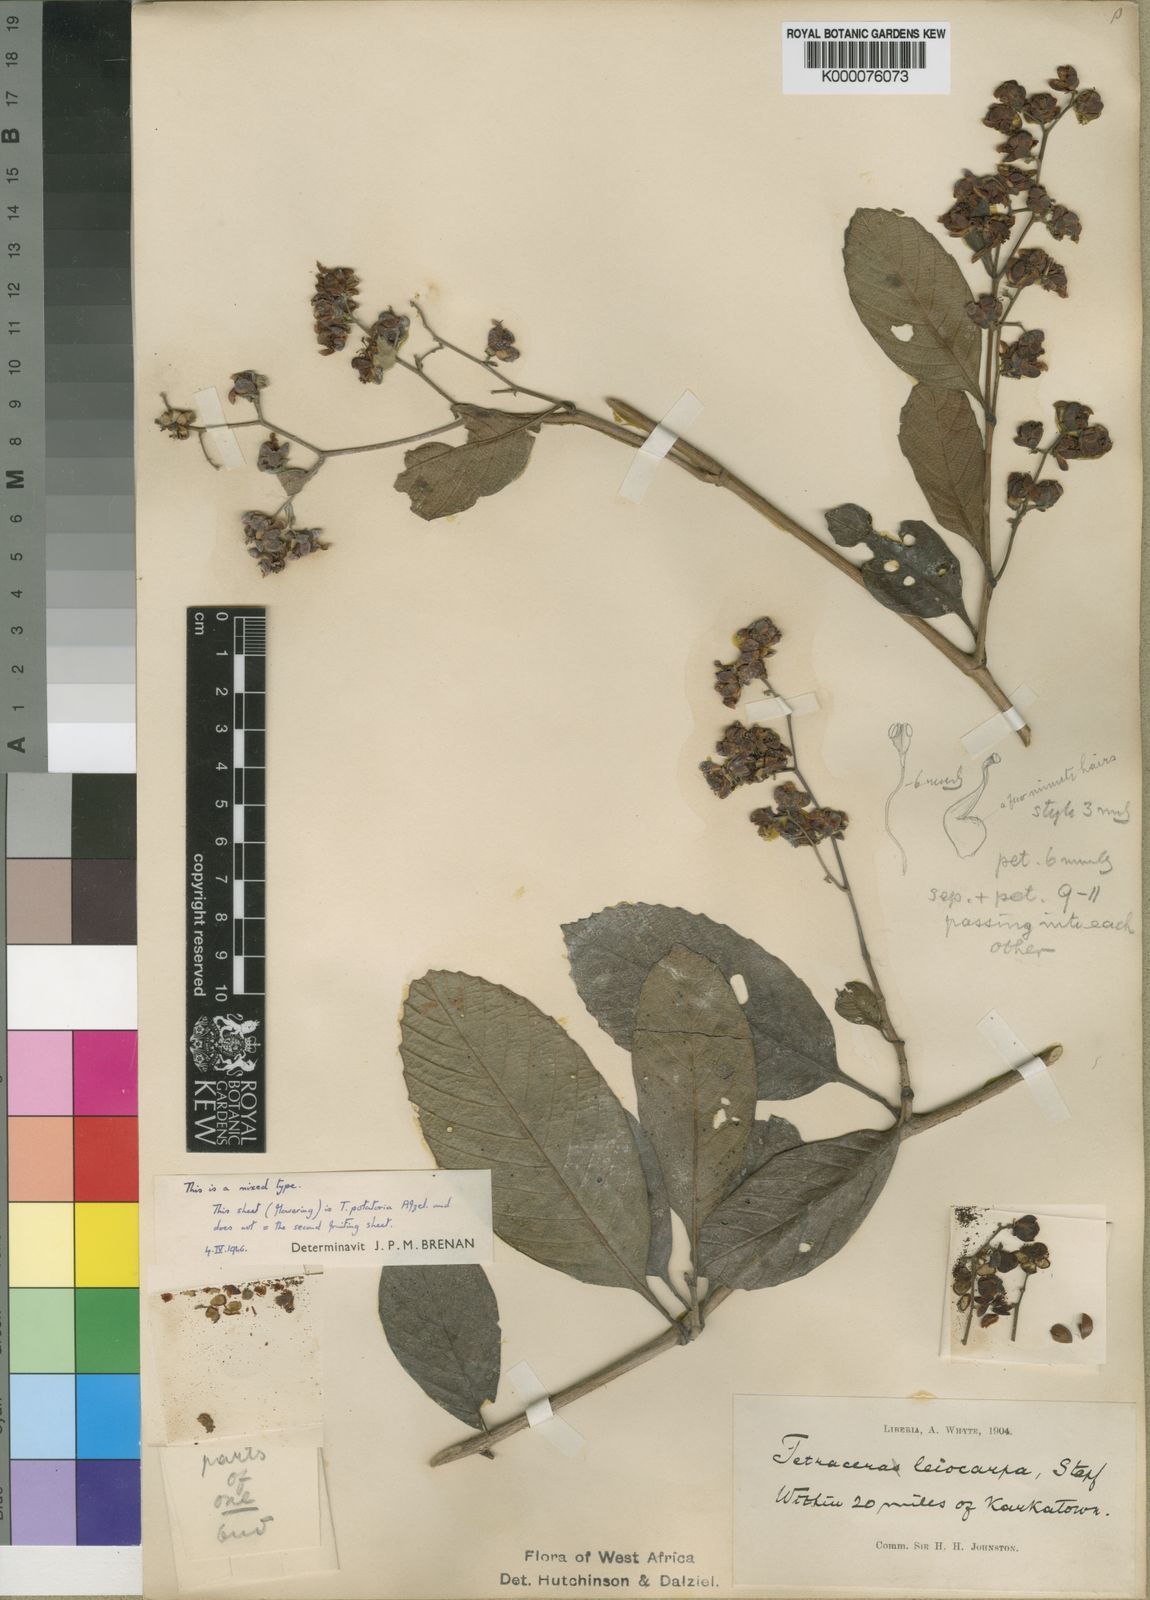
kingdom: Plantae
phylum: Tracheophyta
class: Magnoliopsida
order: Dilleniales
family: Dilleniaceae
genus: Tetracera
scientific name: Tetracera potatoria
